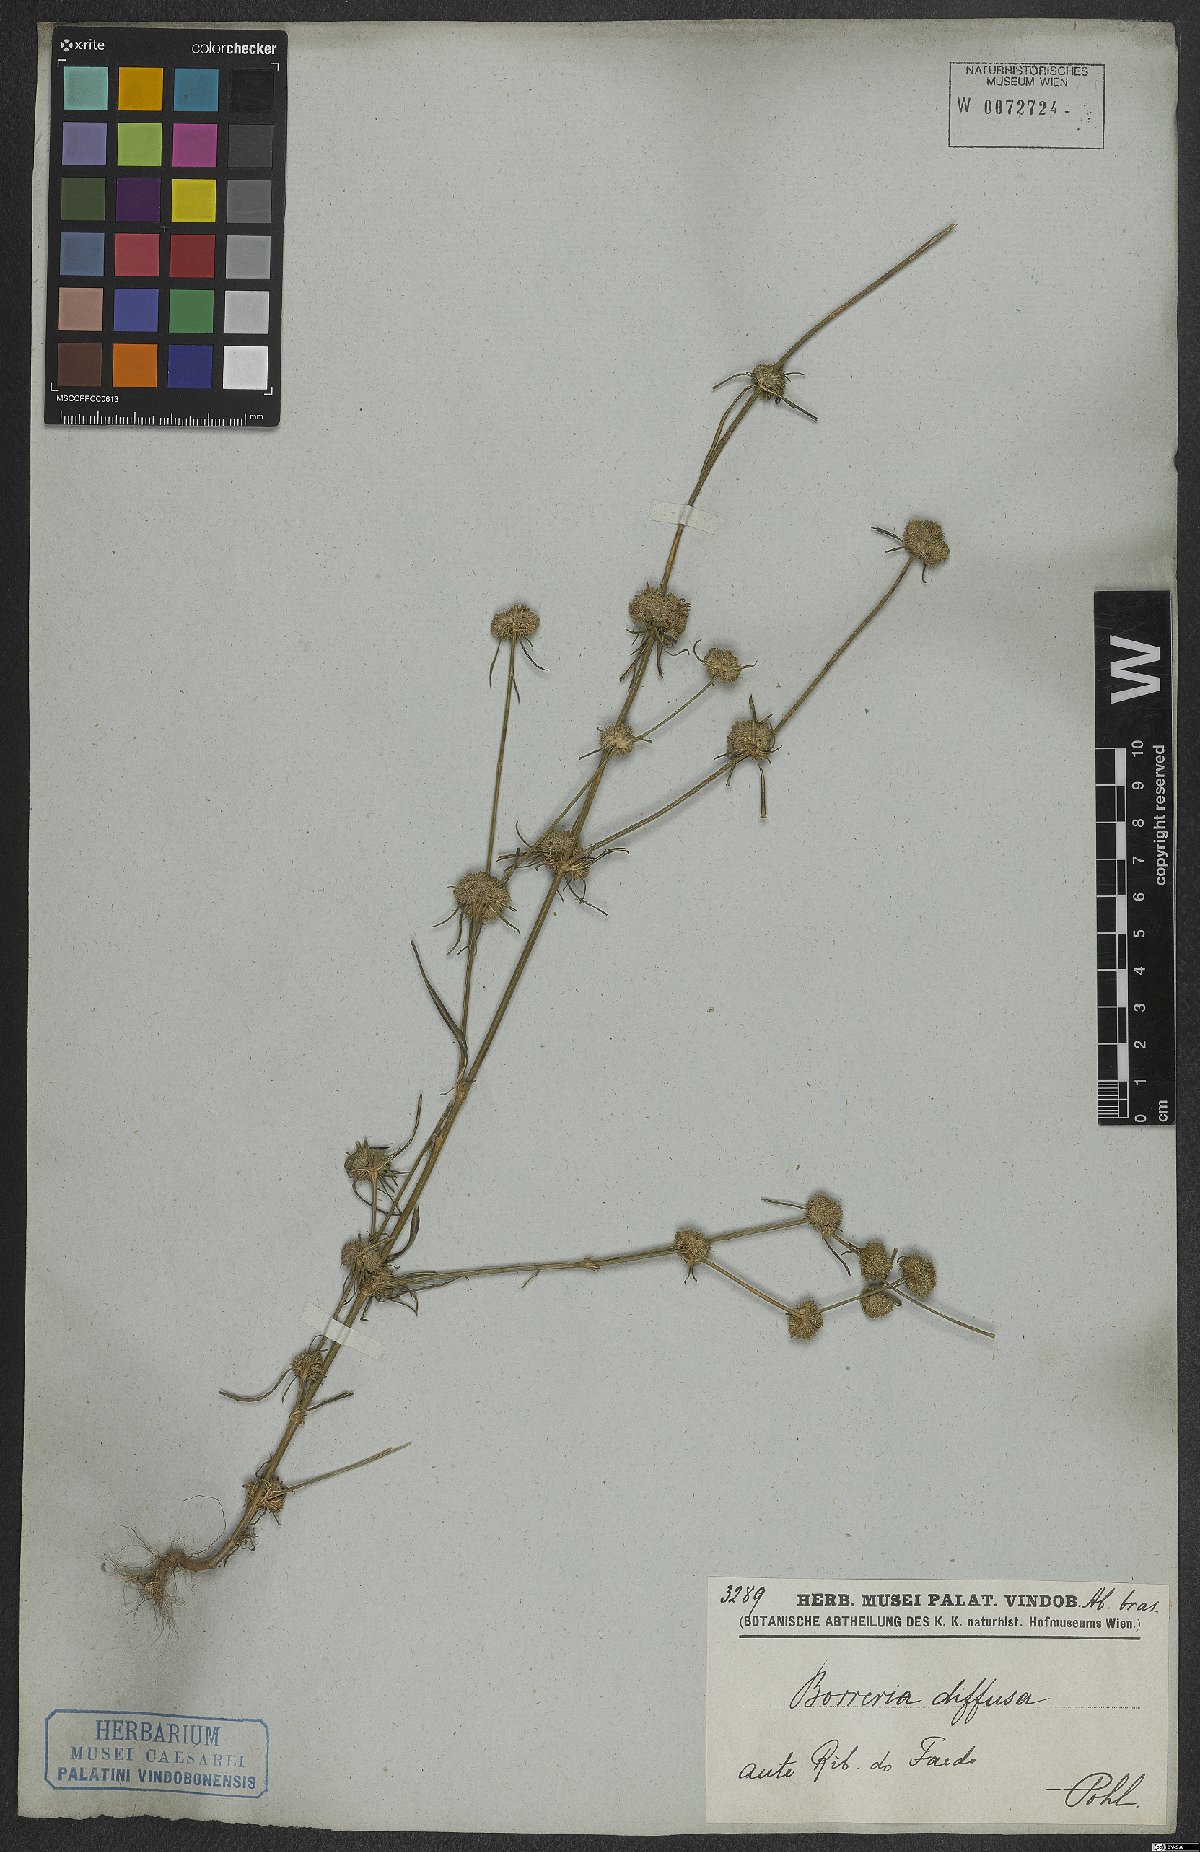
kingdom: Plantae
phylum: Tracheophyta
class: Magnoliopsida
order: Gentianales
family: Rubiaceae
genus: Spermacoce
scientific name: Spermacoce eryngioides
